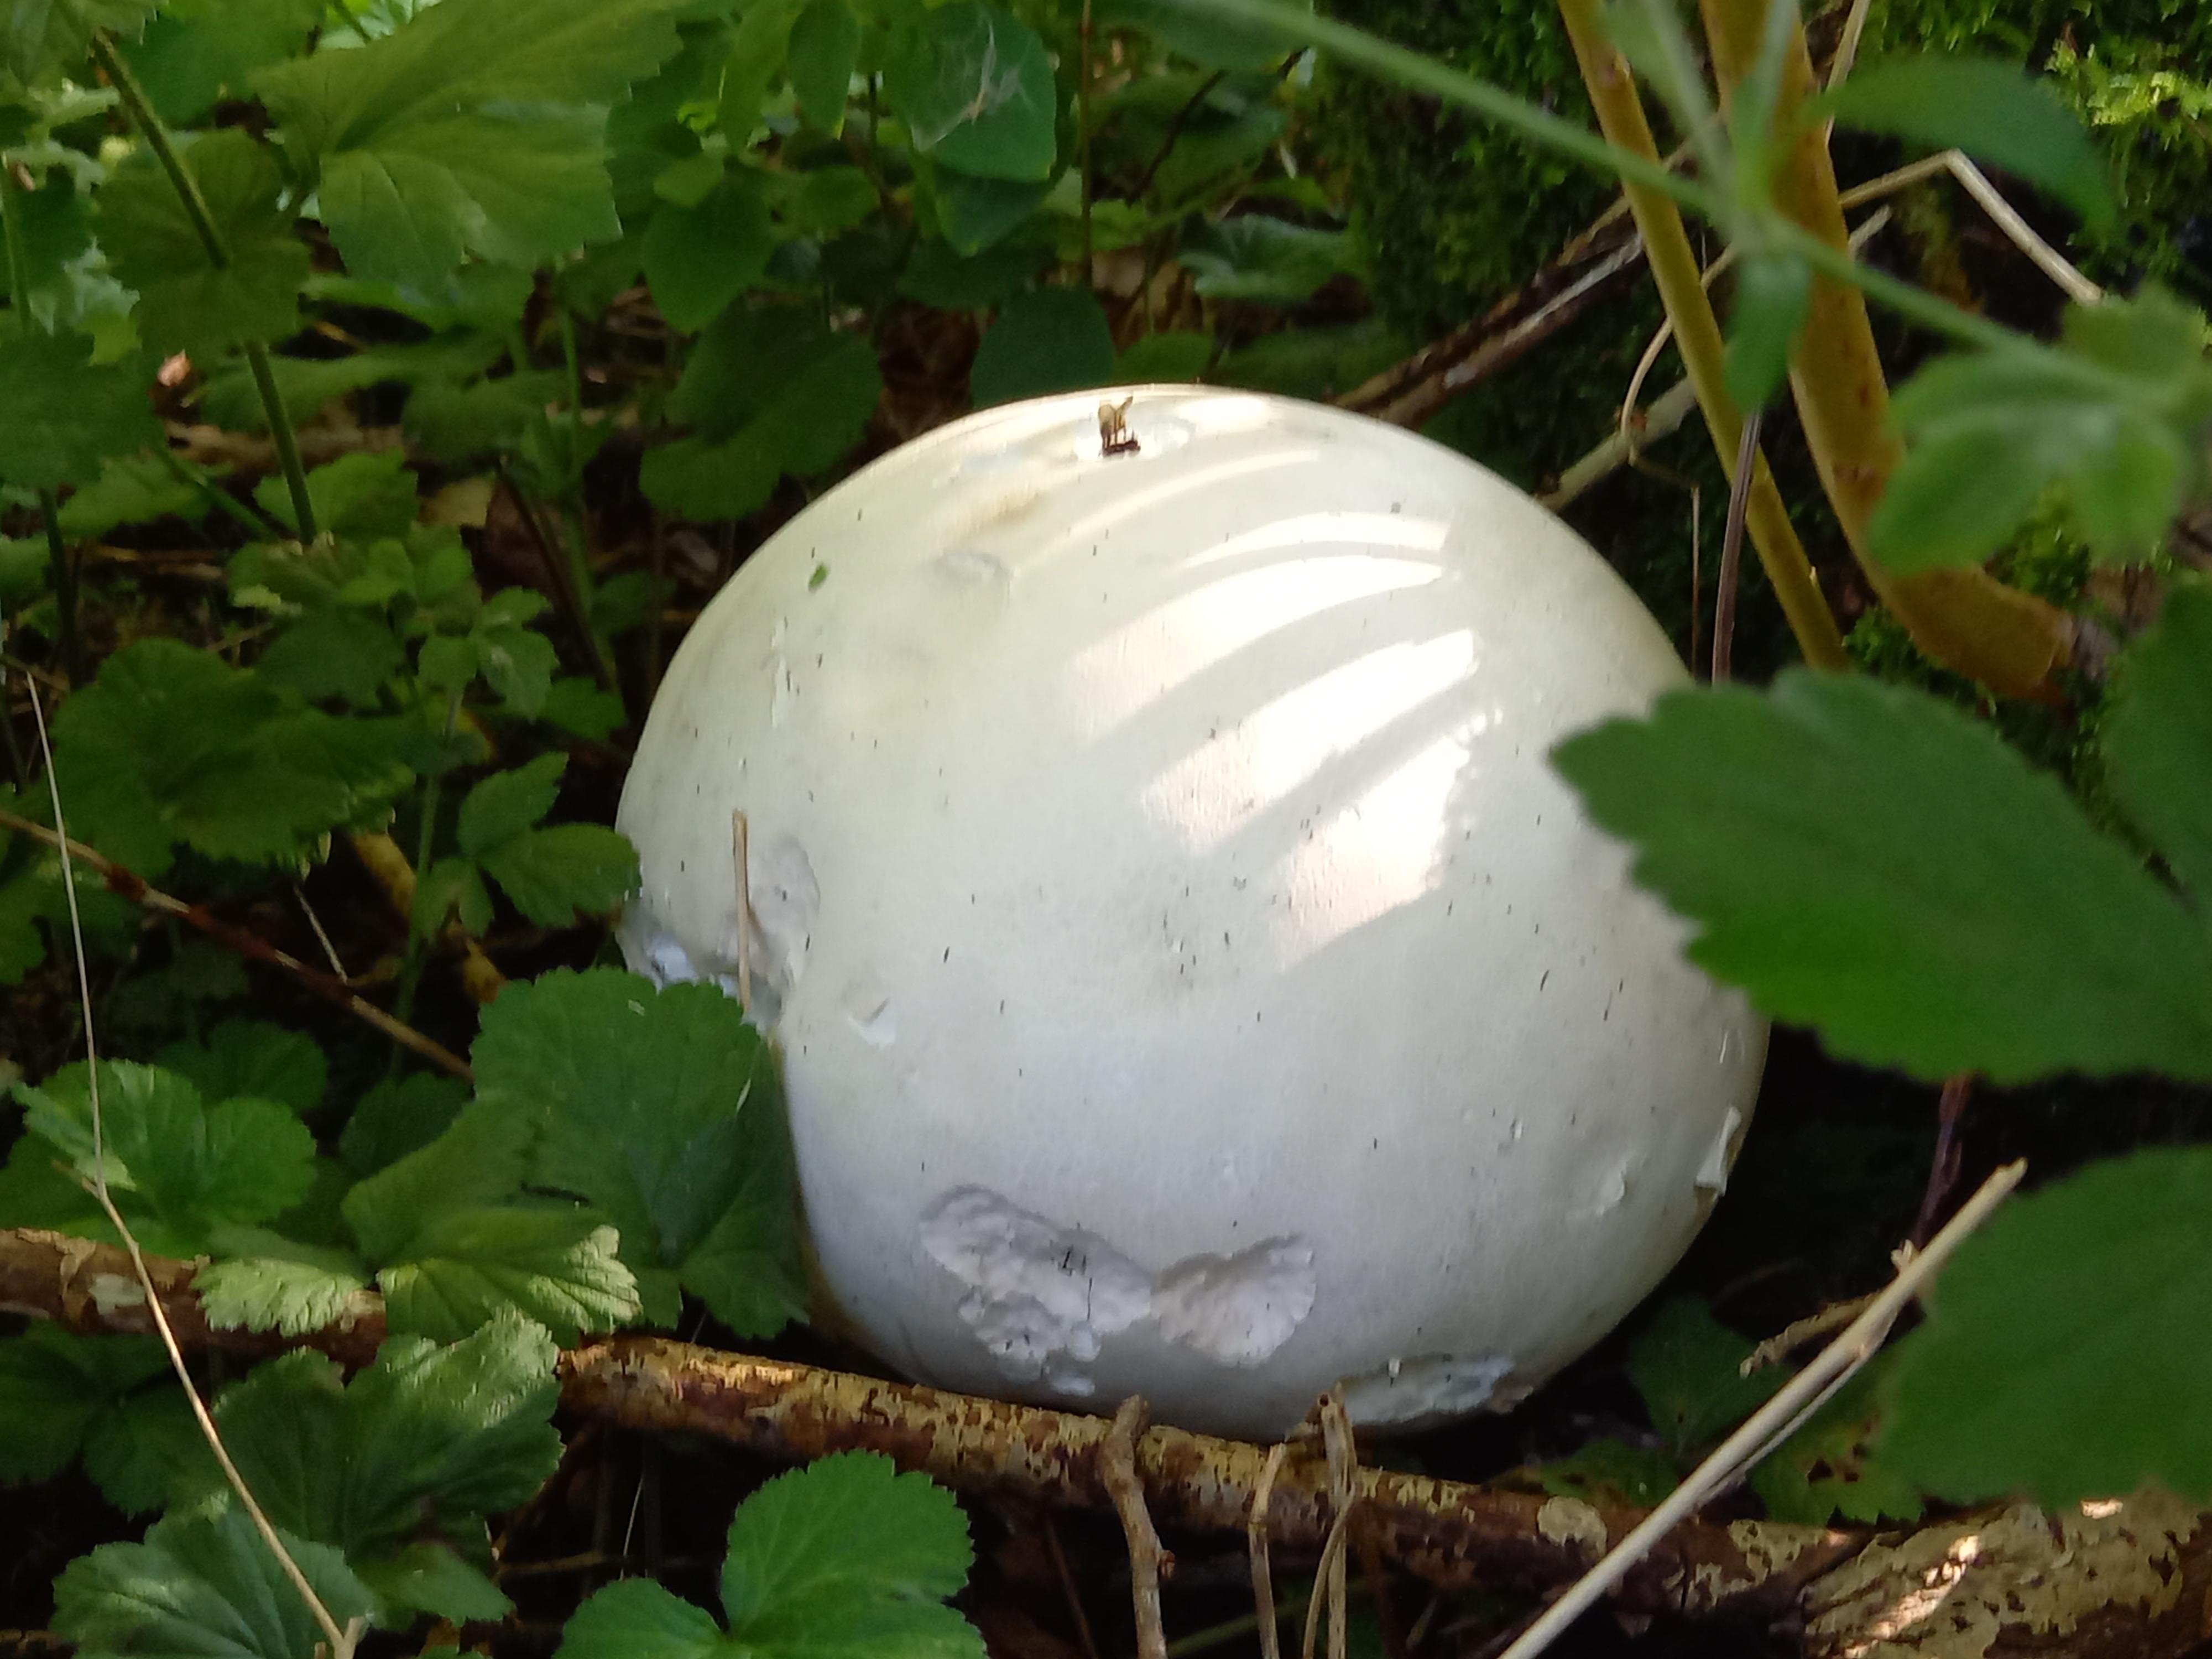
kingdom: Fungi
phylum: Basidiomycota
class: Agaricomycetes
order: Agaricales
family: Lycoperdaceae
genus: Calvatia
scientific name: Calvatia gigantea
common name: kæmpestøvbold
